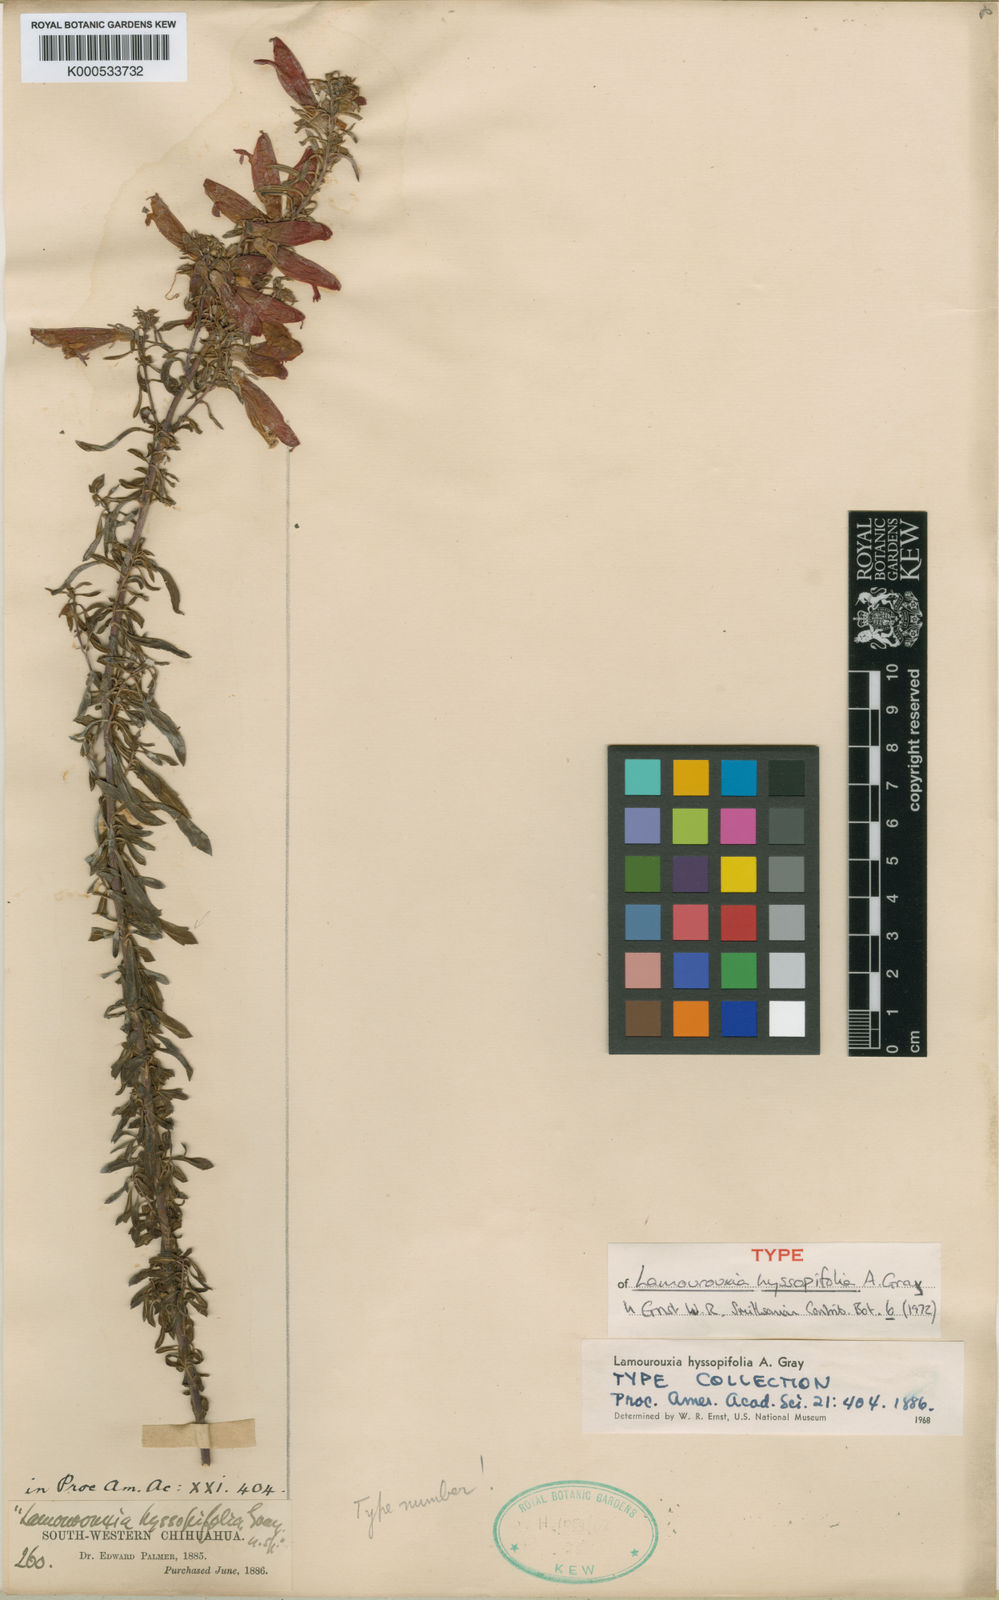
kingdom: Plantae
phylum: Tracheophyta
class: Magnoliopsida
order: Lamiales
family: Orobanchaceae
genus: Lamourouxia
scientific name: Lamourouxia longiflora
